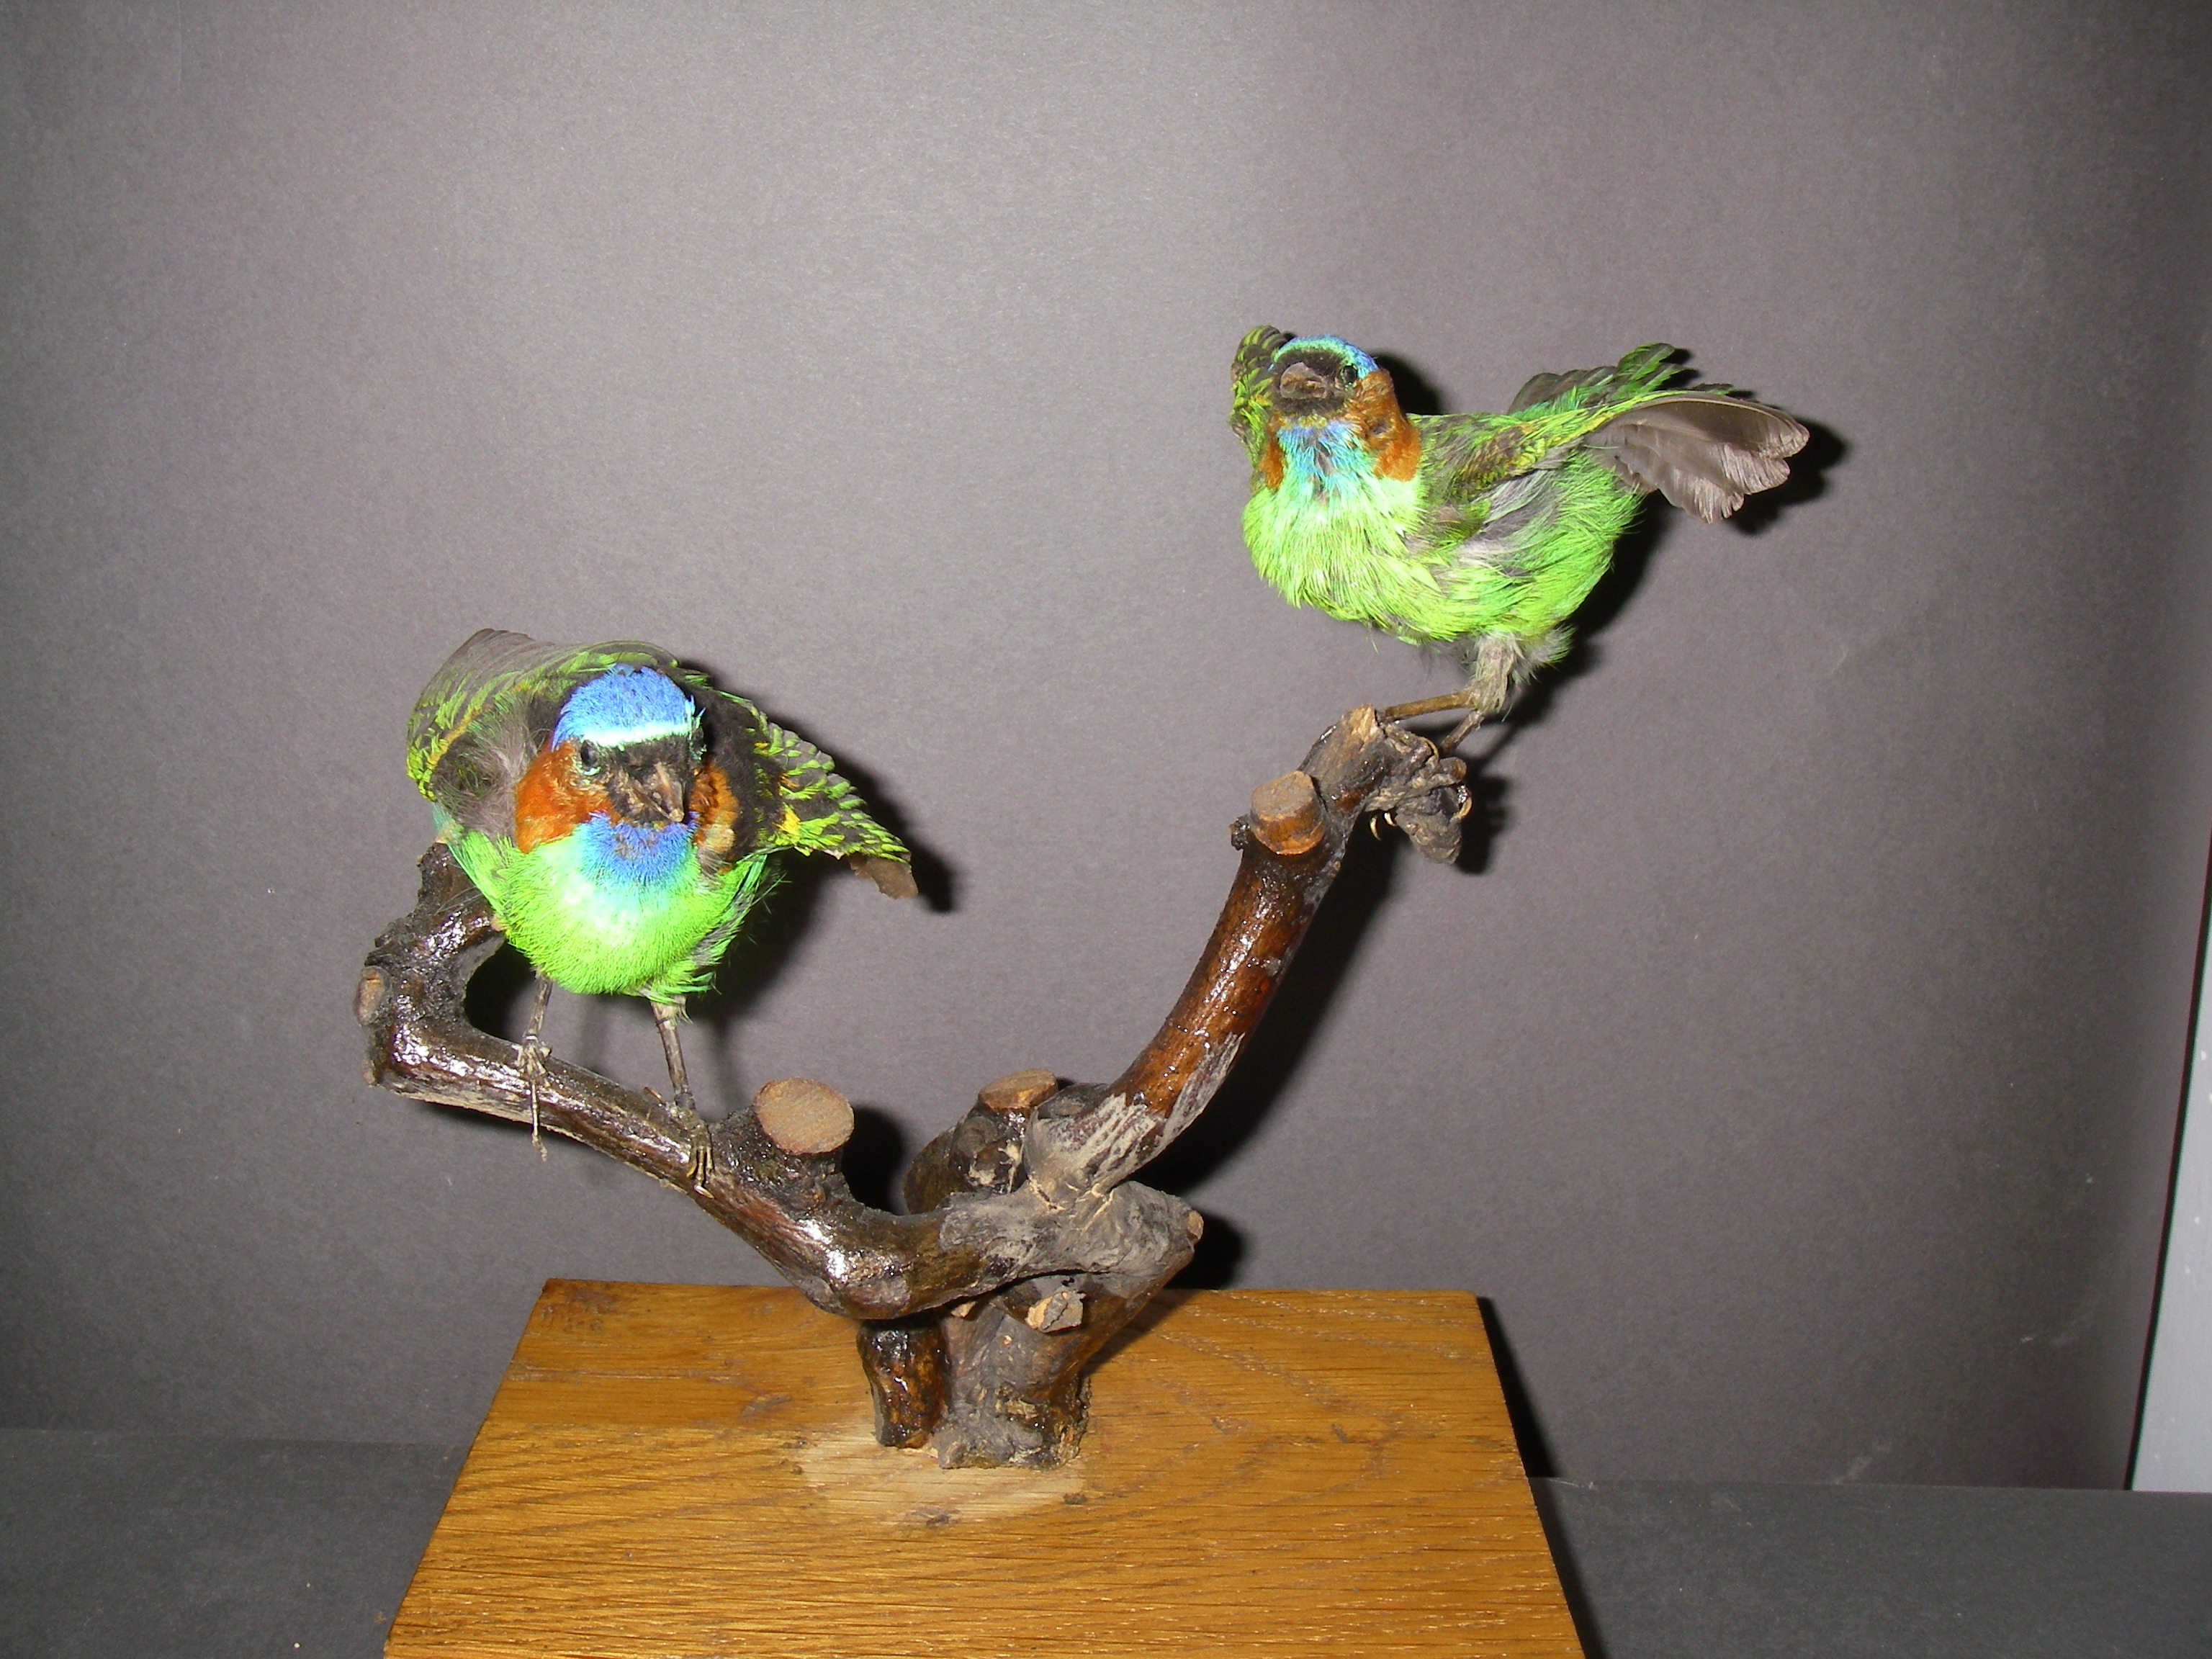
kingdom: Animalia
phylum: Chordata
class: Aves
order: Passeriformes
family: Thraupidae
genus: Tangara
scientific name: Tangara cyanocephala
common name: Red-necked tanager
